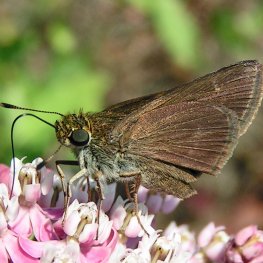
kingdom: Animalia
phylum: Arthropoda
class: Insecta
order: Lepidoptera
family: Hesperiidae
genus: Euphyes
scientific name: Euphyes vestris
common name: Dun Skipper
